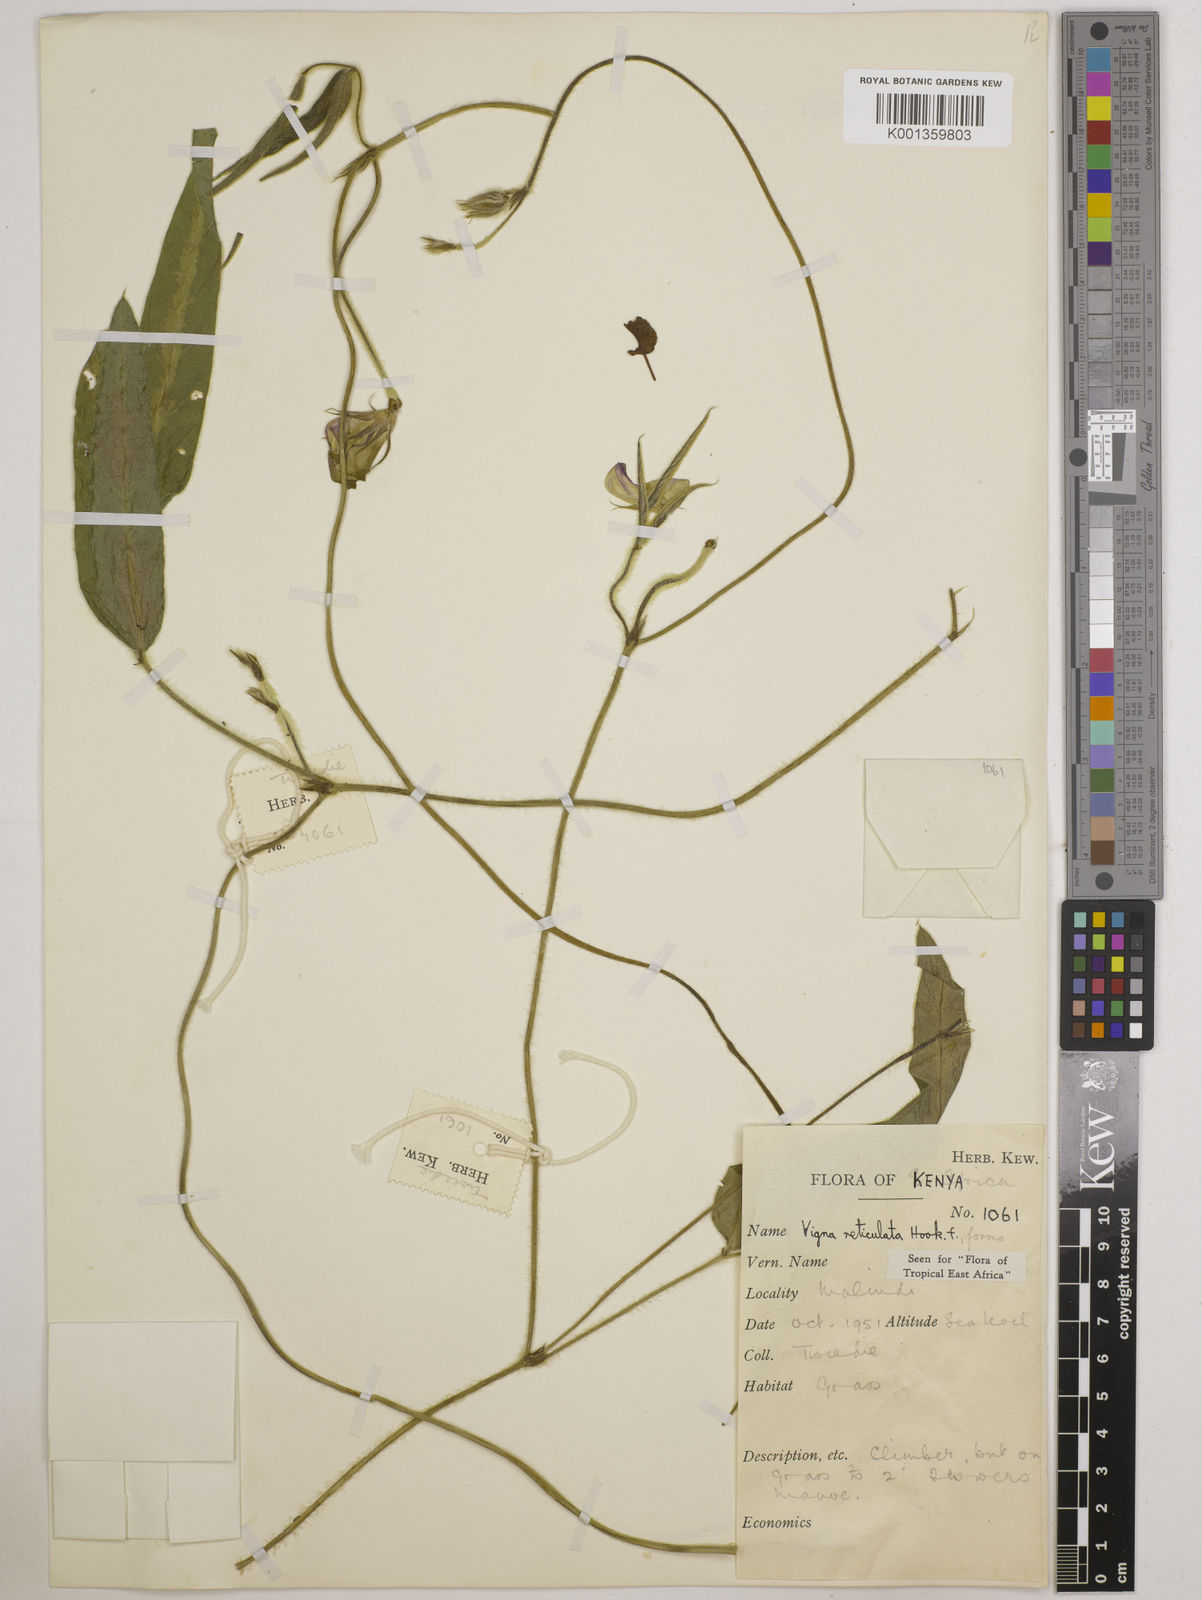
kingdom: Plantae
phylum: Tracheophyta
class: Magnoliopsida
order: Fabales
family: Fabaceae
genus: Vigna
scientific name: Vigna reticulata
